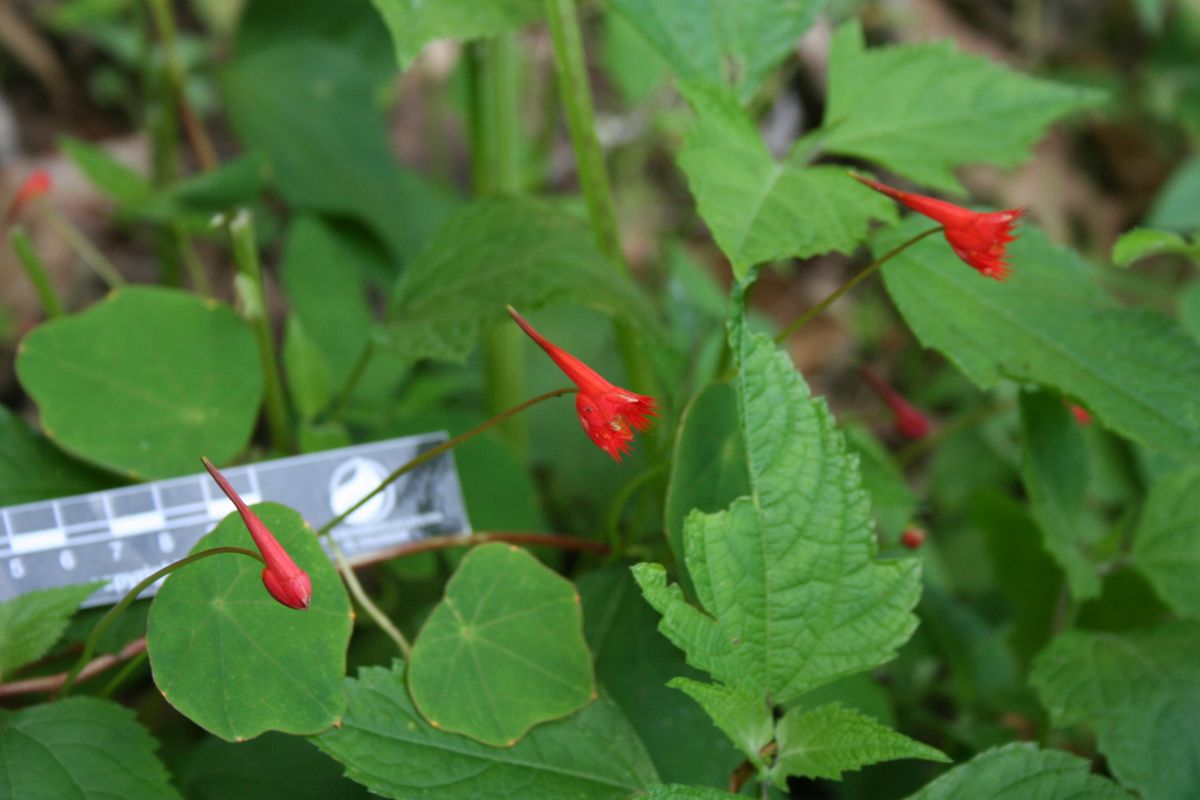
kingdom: Plantae
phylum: Tracheophyta
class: Magnoliopsida
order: Brassicales
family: Tropaeolaceae
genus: Tropaeolum
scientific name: Tropaeolum moritzianum
